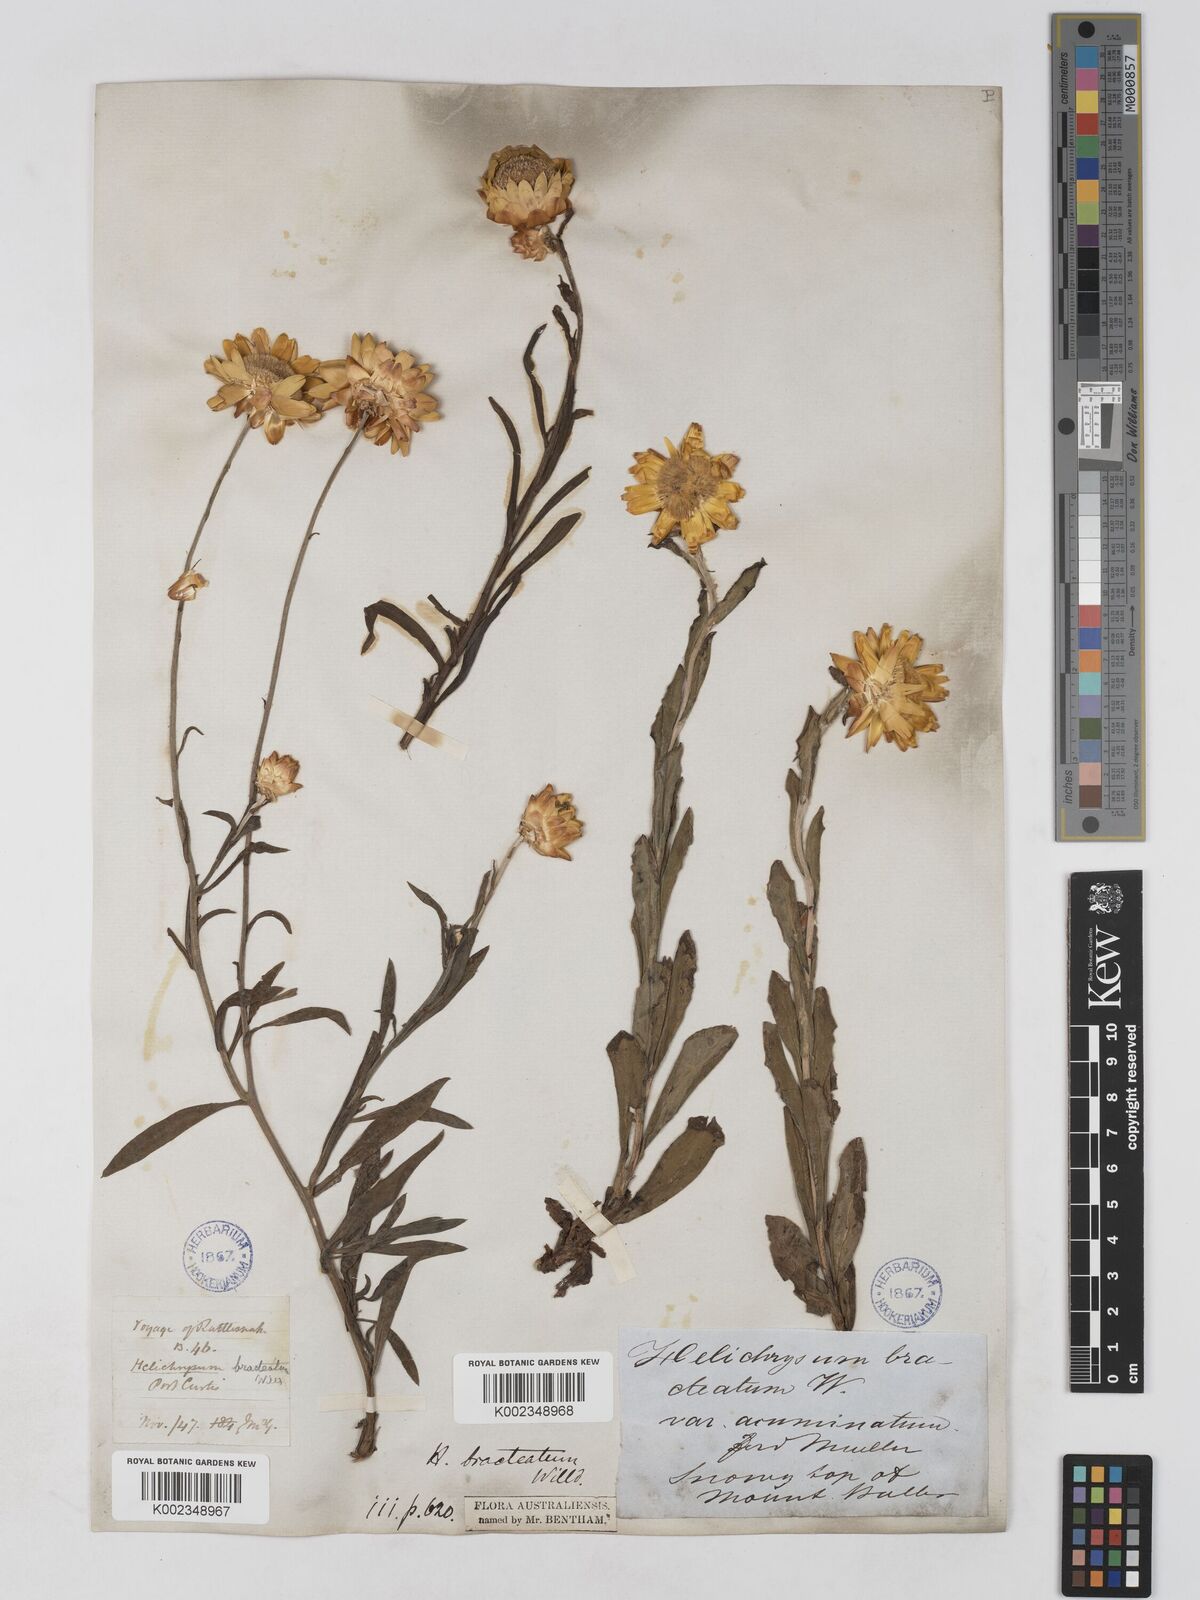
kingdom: Plantae
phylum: Tracheophyta
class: Magnoliopsida
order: Asterales
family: Asteraceae
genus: Xerochrysum
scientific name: Xerochrysum bracteatum
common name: Bracted strawflower
